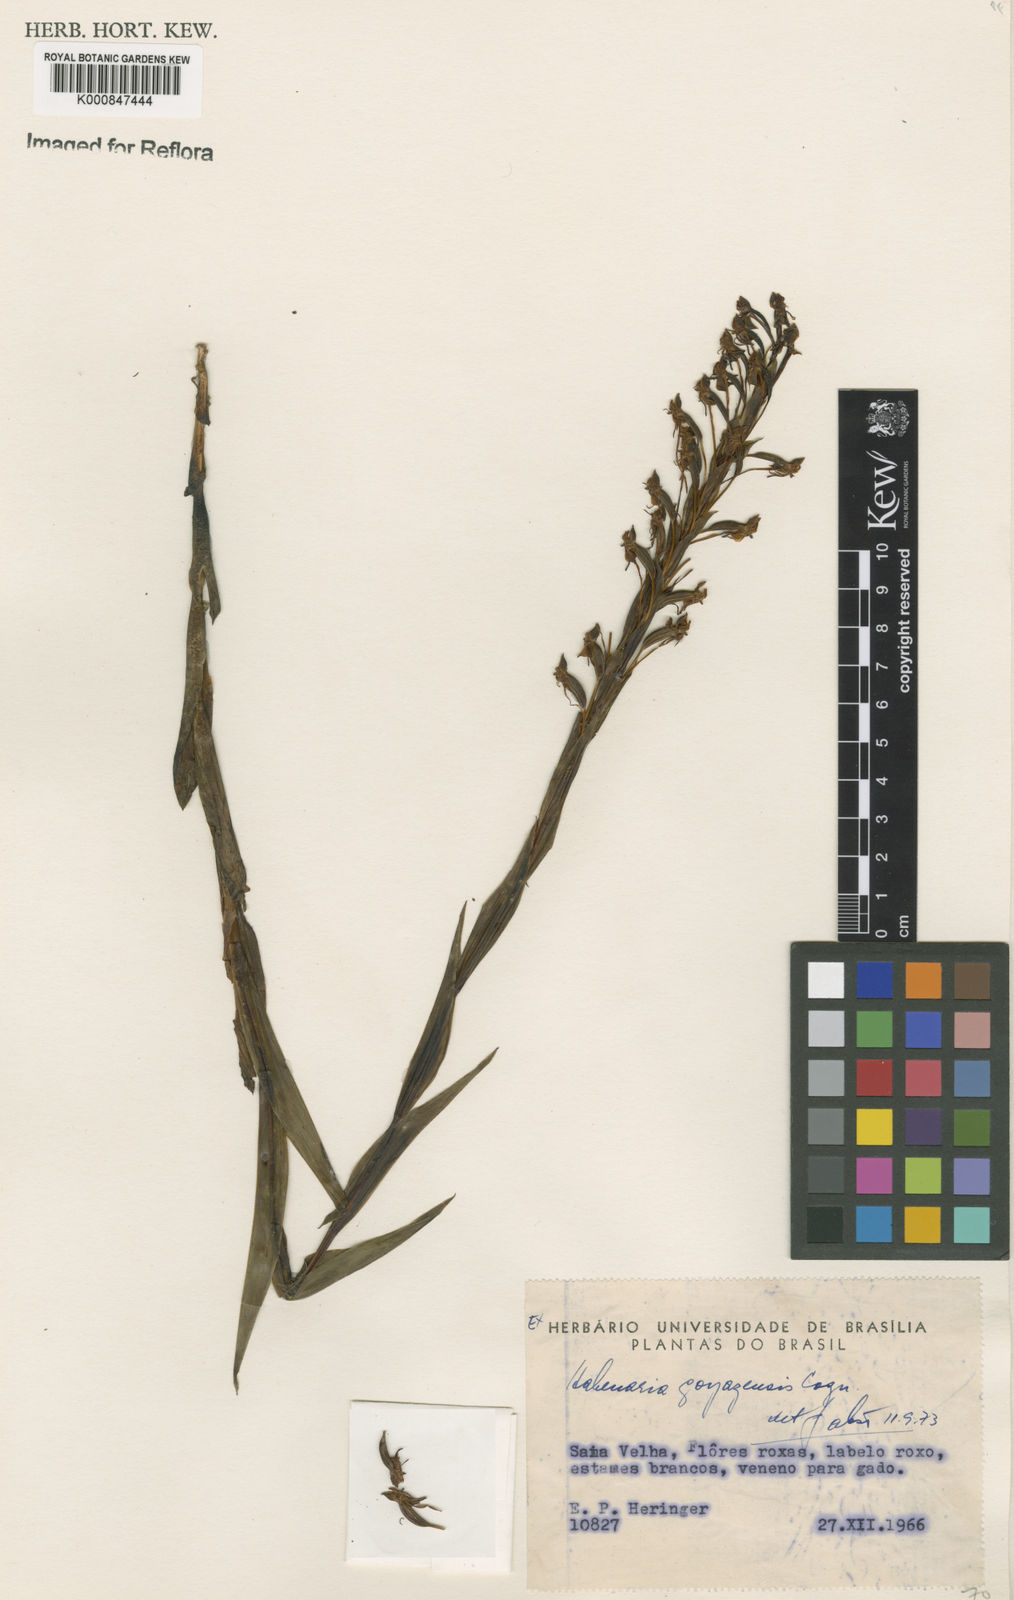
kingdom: Plantae
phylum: Tracheophyta
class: Liliopsida
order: Asparagales
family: Orchidaceae
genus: Habenaria
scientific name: Habenaria goyazensis
